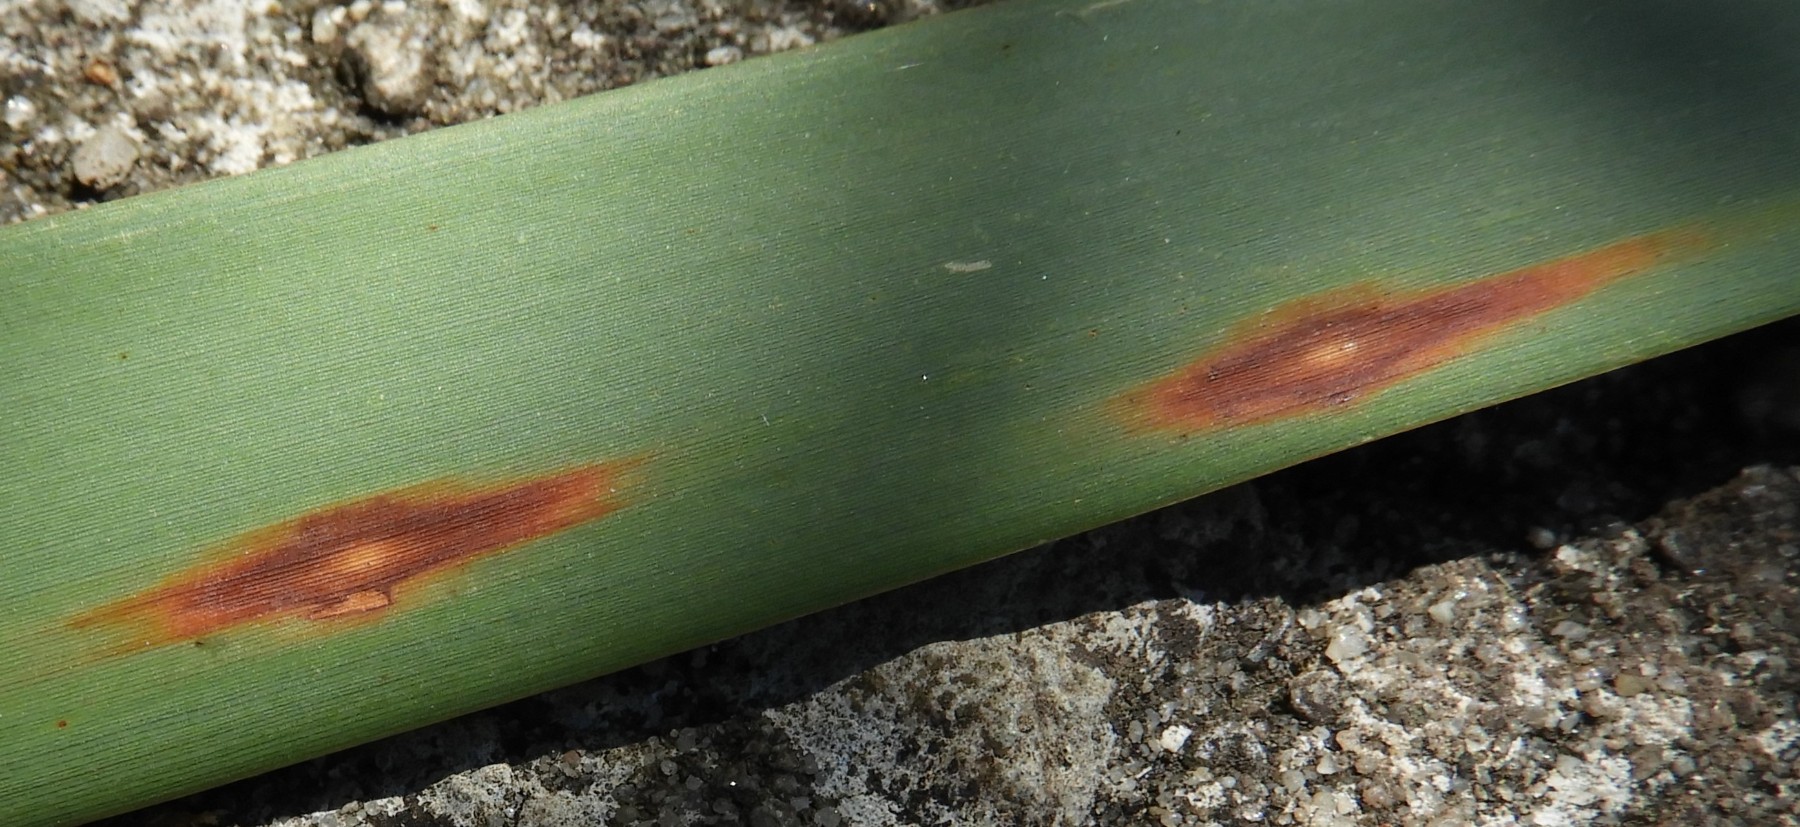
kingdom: Fungi
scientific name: Fungi
